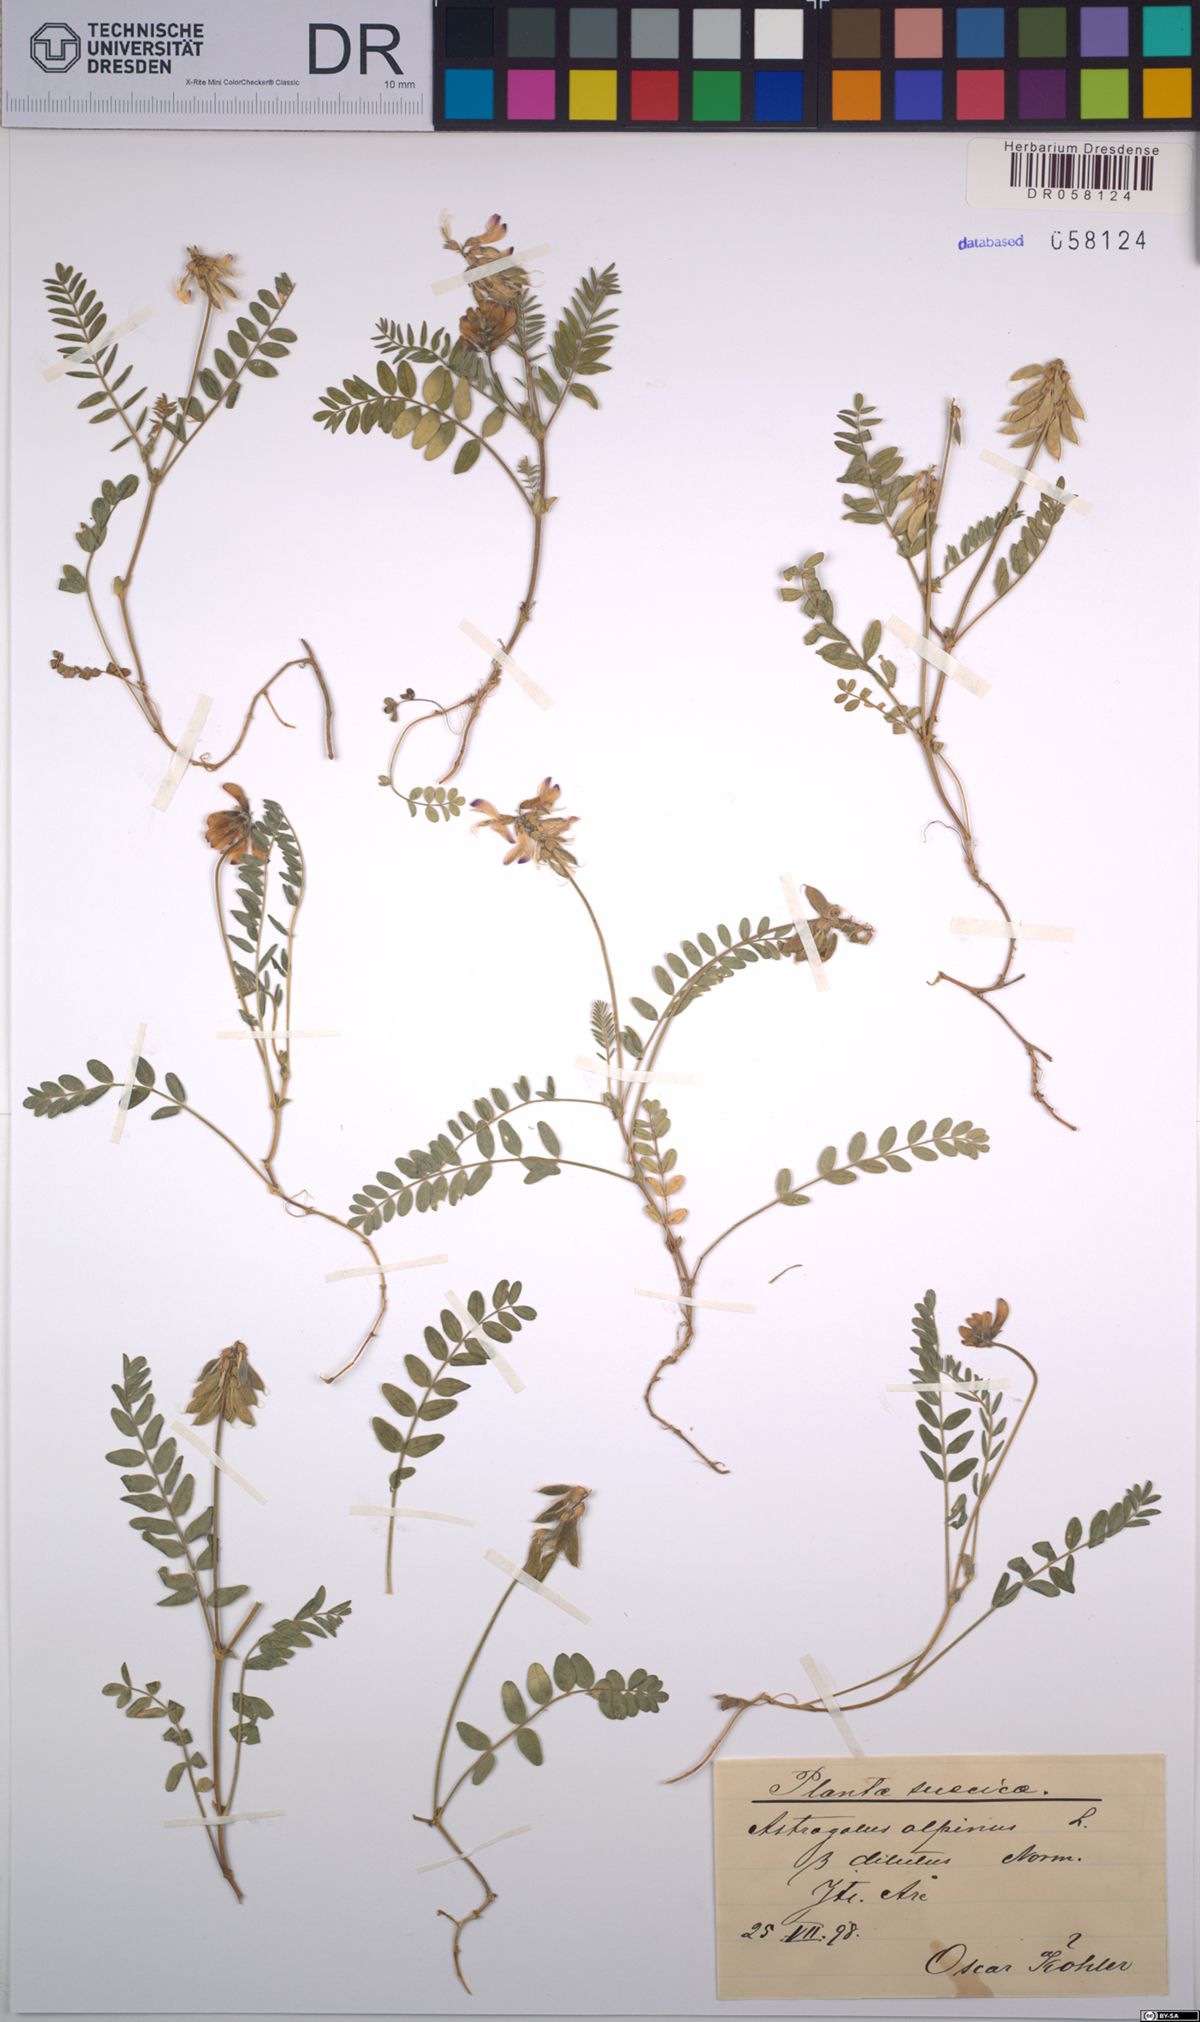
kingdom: Plantae
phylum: Tracheophyta
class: Magnoliopsida
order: Fabales
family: Fabaceae
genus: Astragalus
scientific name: Astragalus alpinus
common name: Alpine milk-vetch
